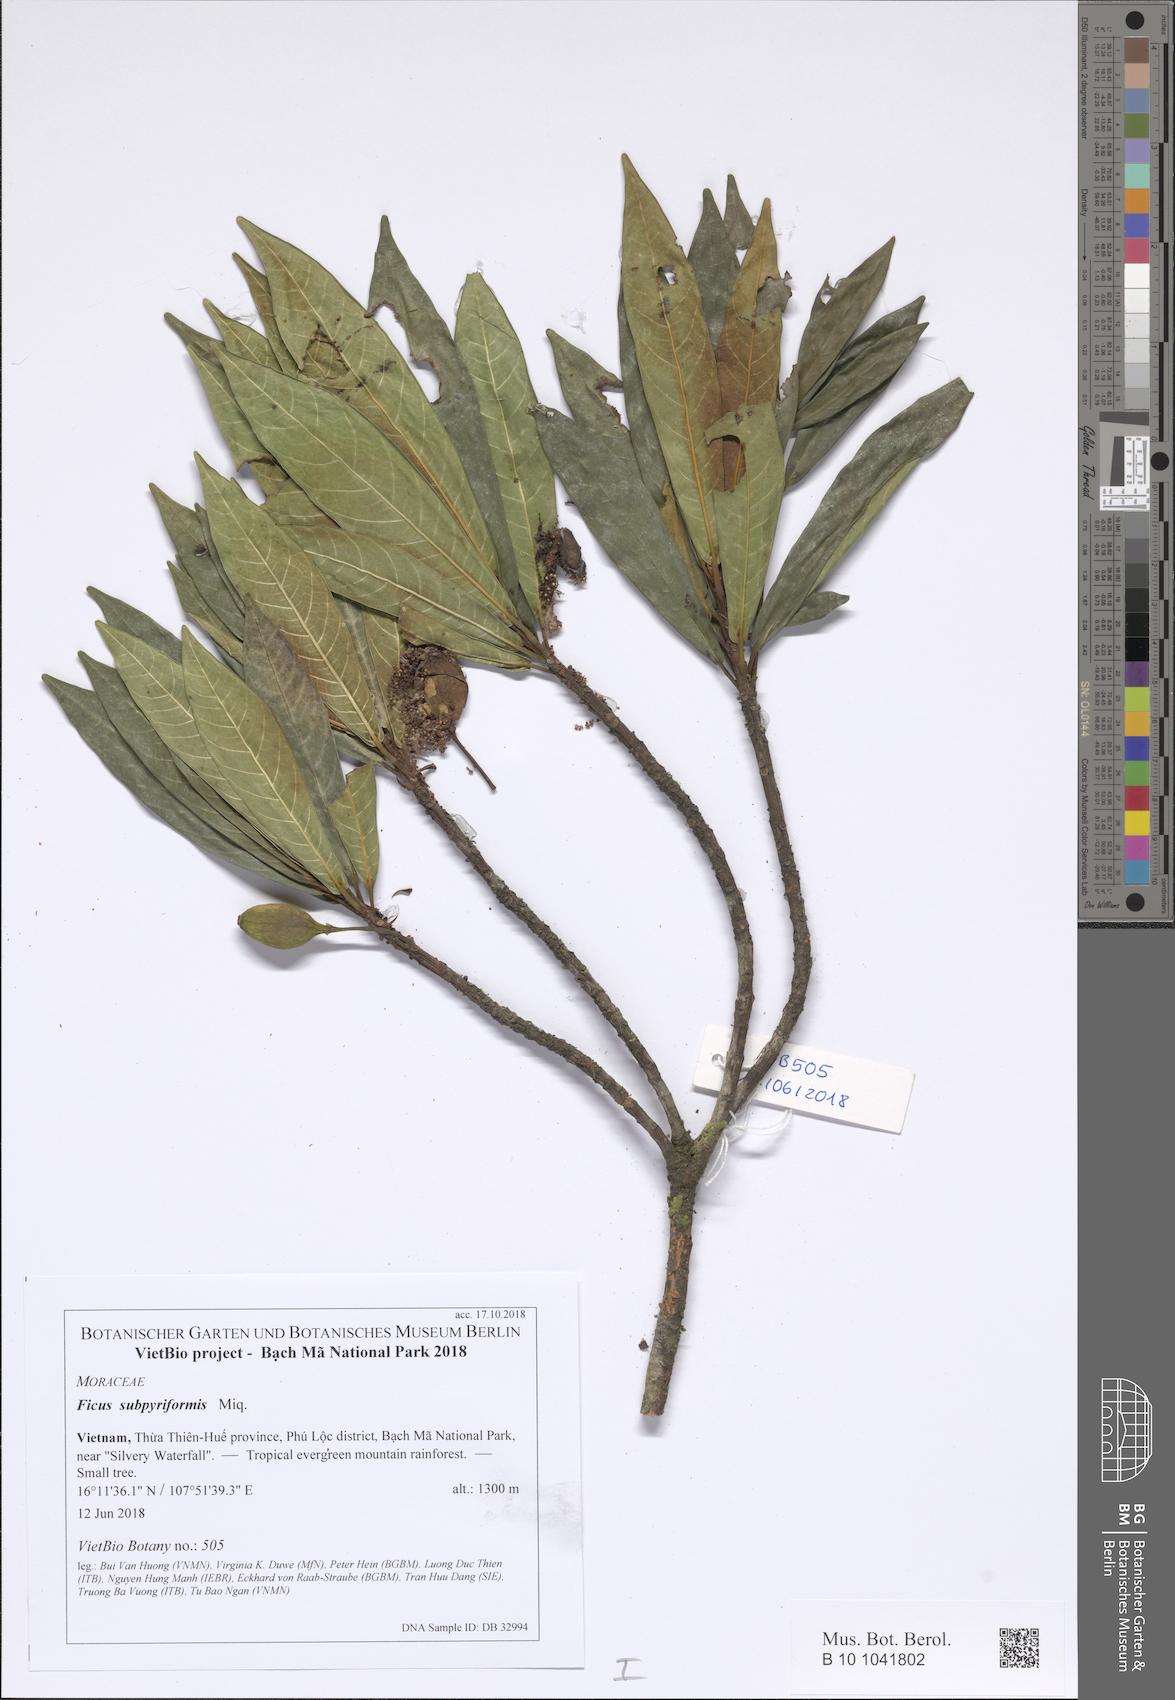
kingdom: Plantae
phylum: Tracheophyta
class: Magnoliopsida
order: Rosales
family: Moraceae
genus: Ficus
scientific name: Ficus abelii
